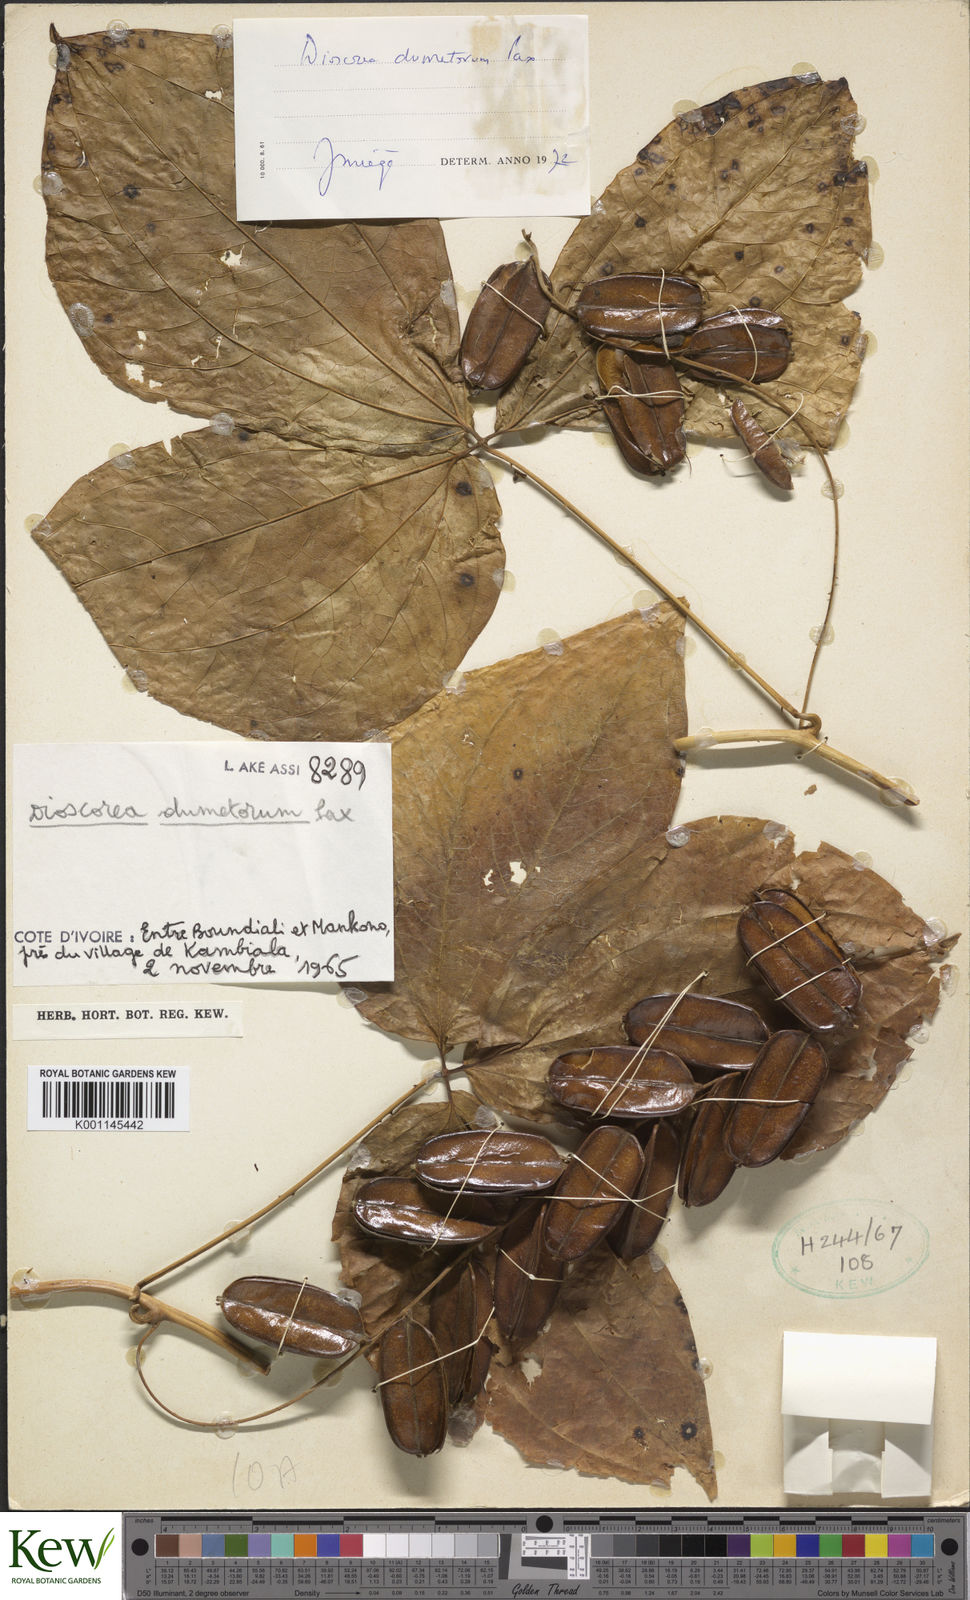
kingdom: Plantae
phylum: Tracheophyta
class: Liliopsida
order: Dioscoreales
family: Dioscoreaceae
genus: Dioscorea
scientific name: Dioscorea dumetorum
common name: African bitter yam
